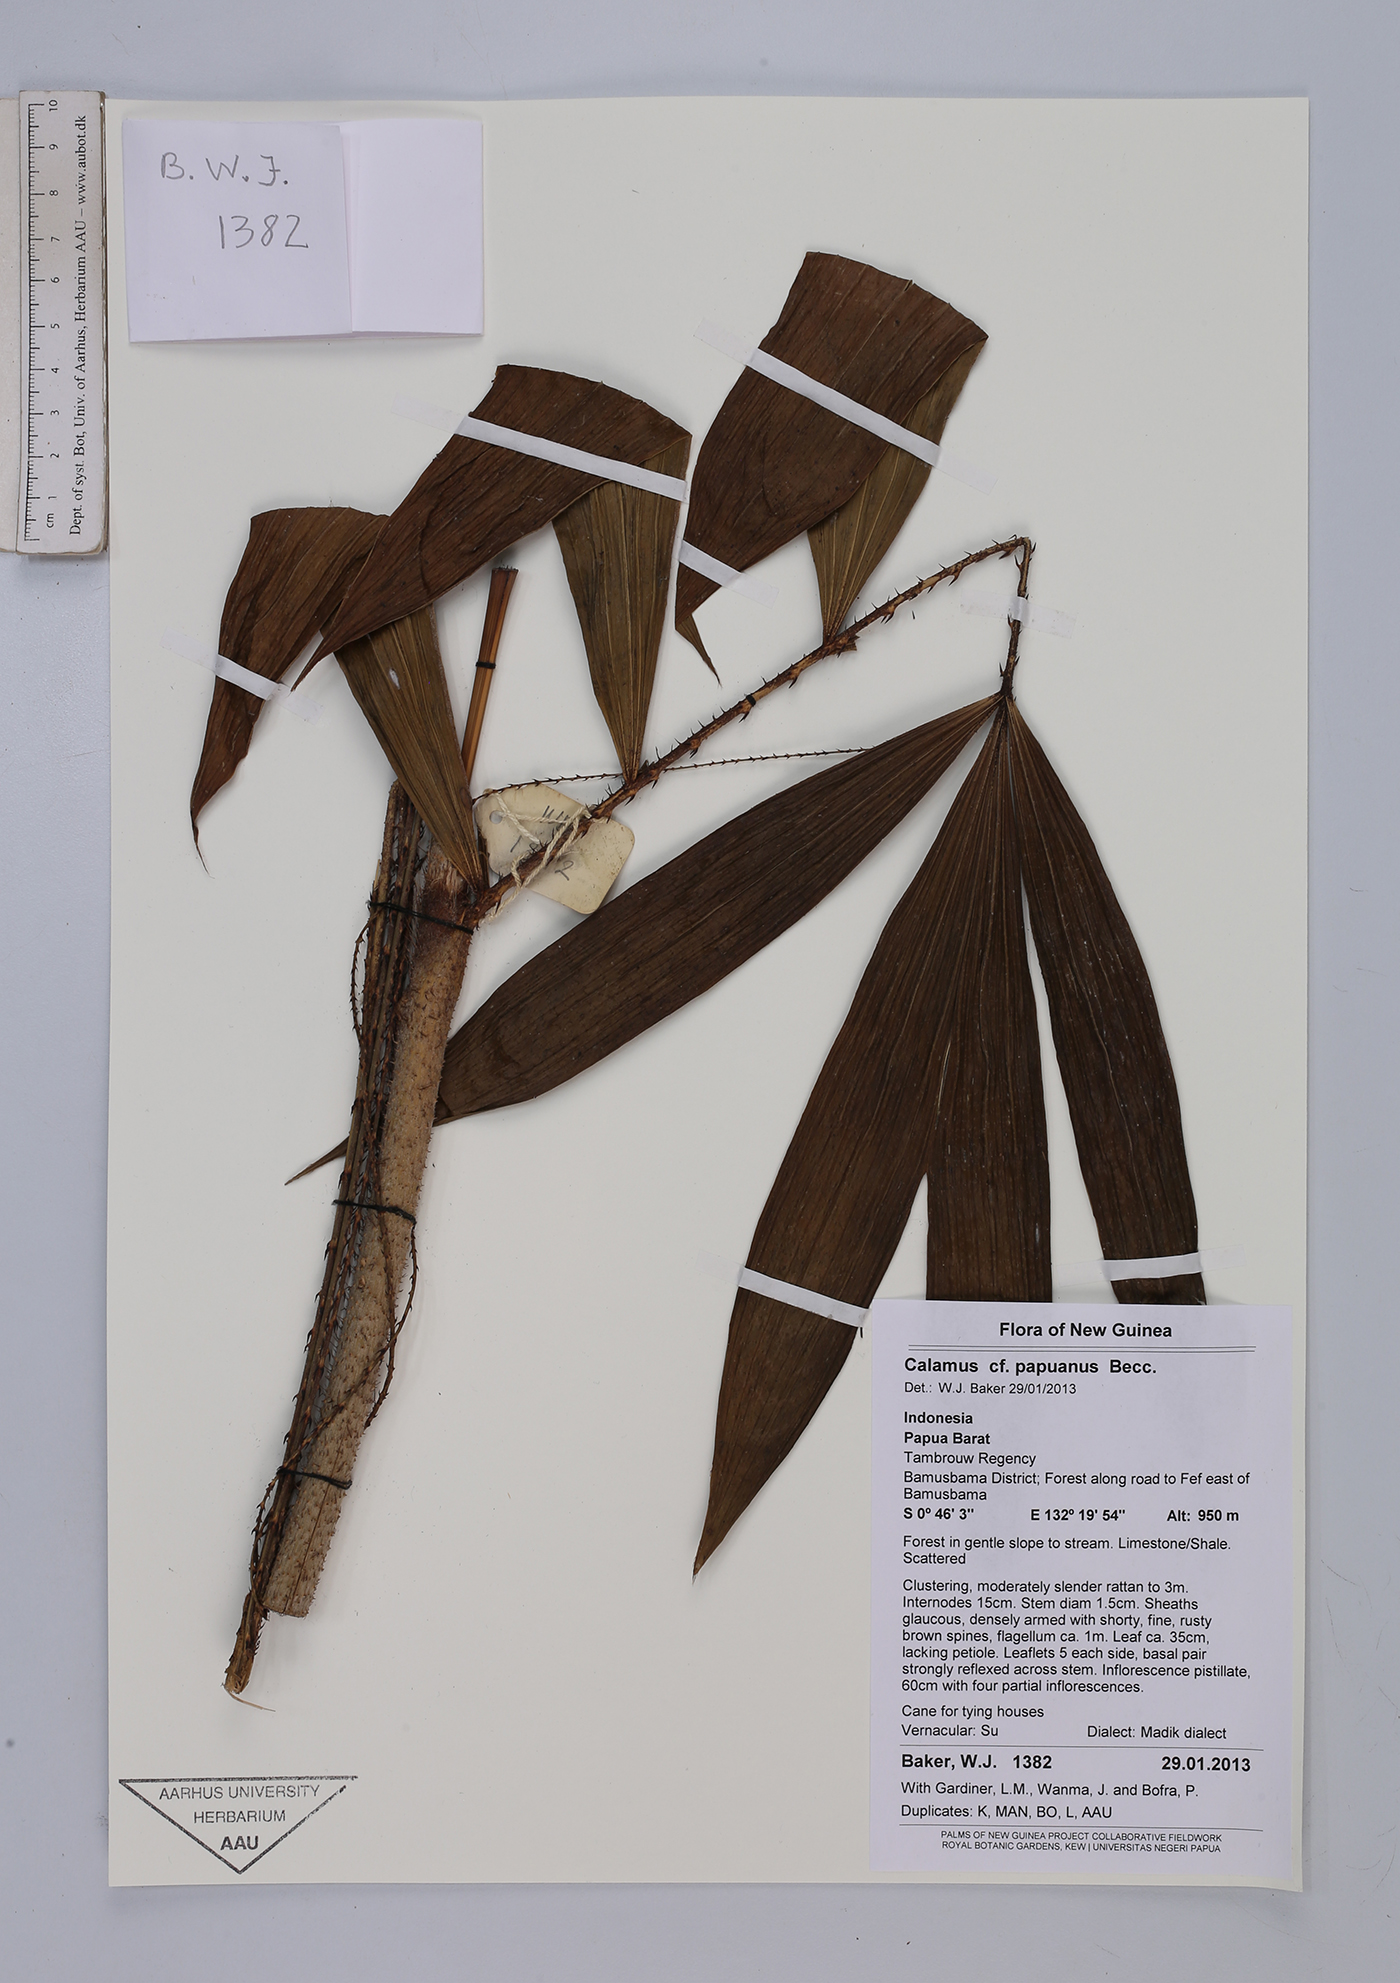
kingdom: Plantae
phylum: Tracheophyta
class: Liliopsida
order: Arecales
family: Arecaceae
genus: Calamus
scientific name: Calamus papuanus
